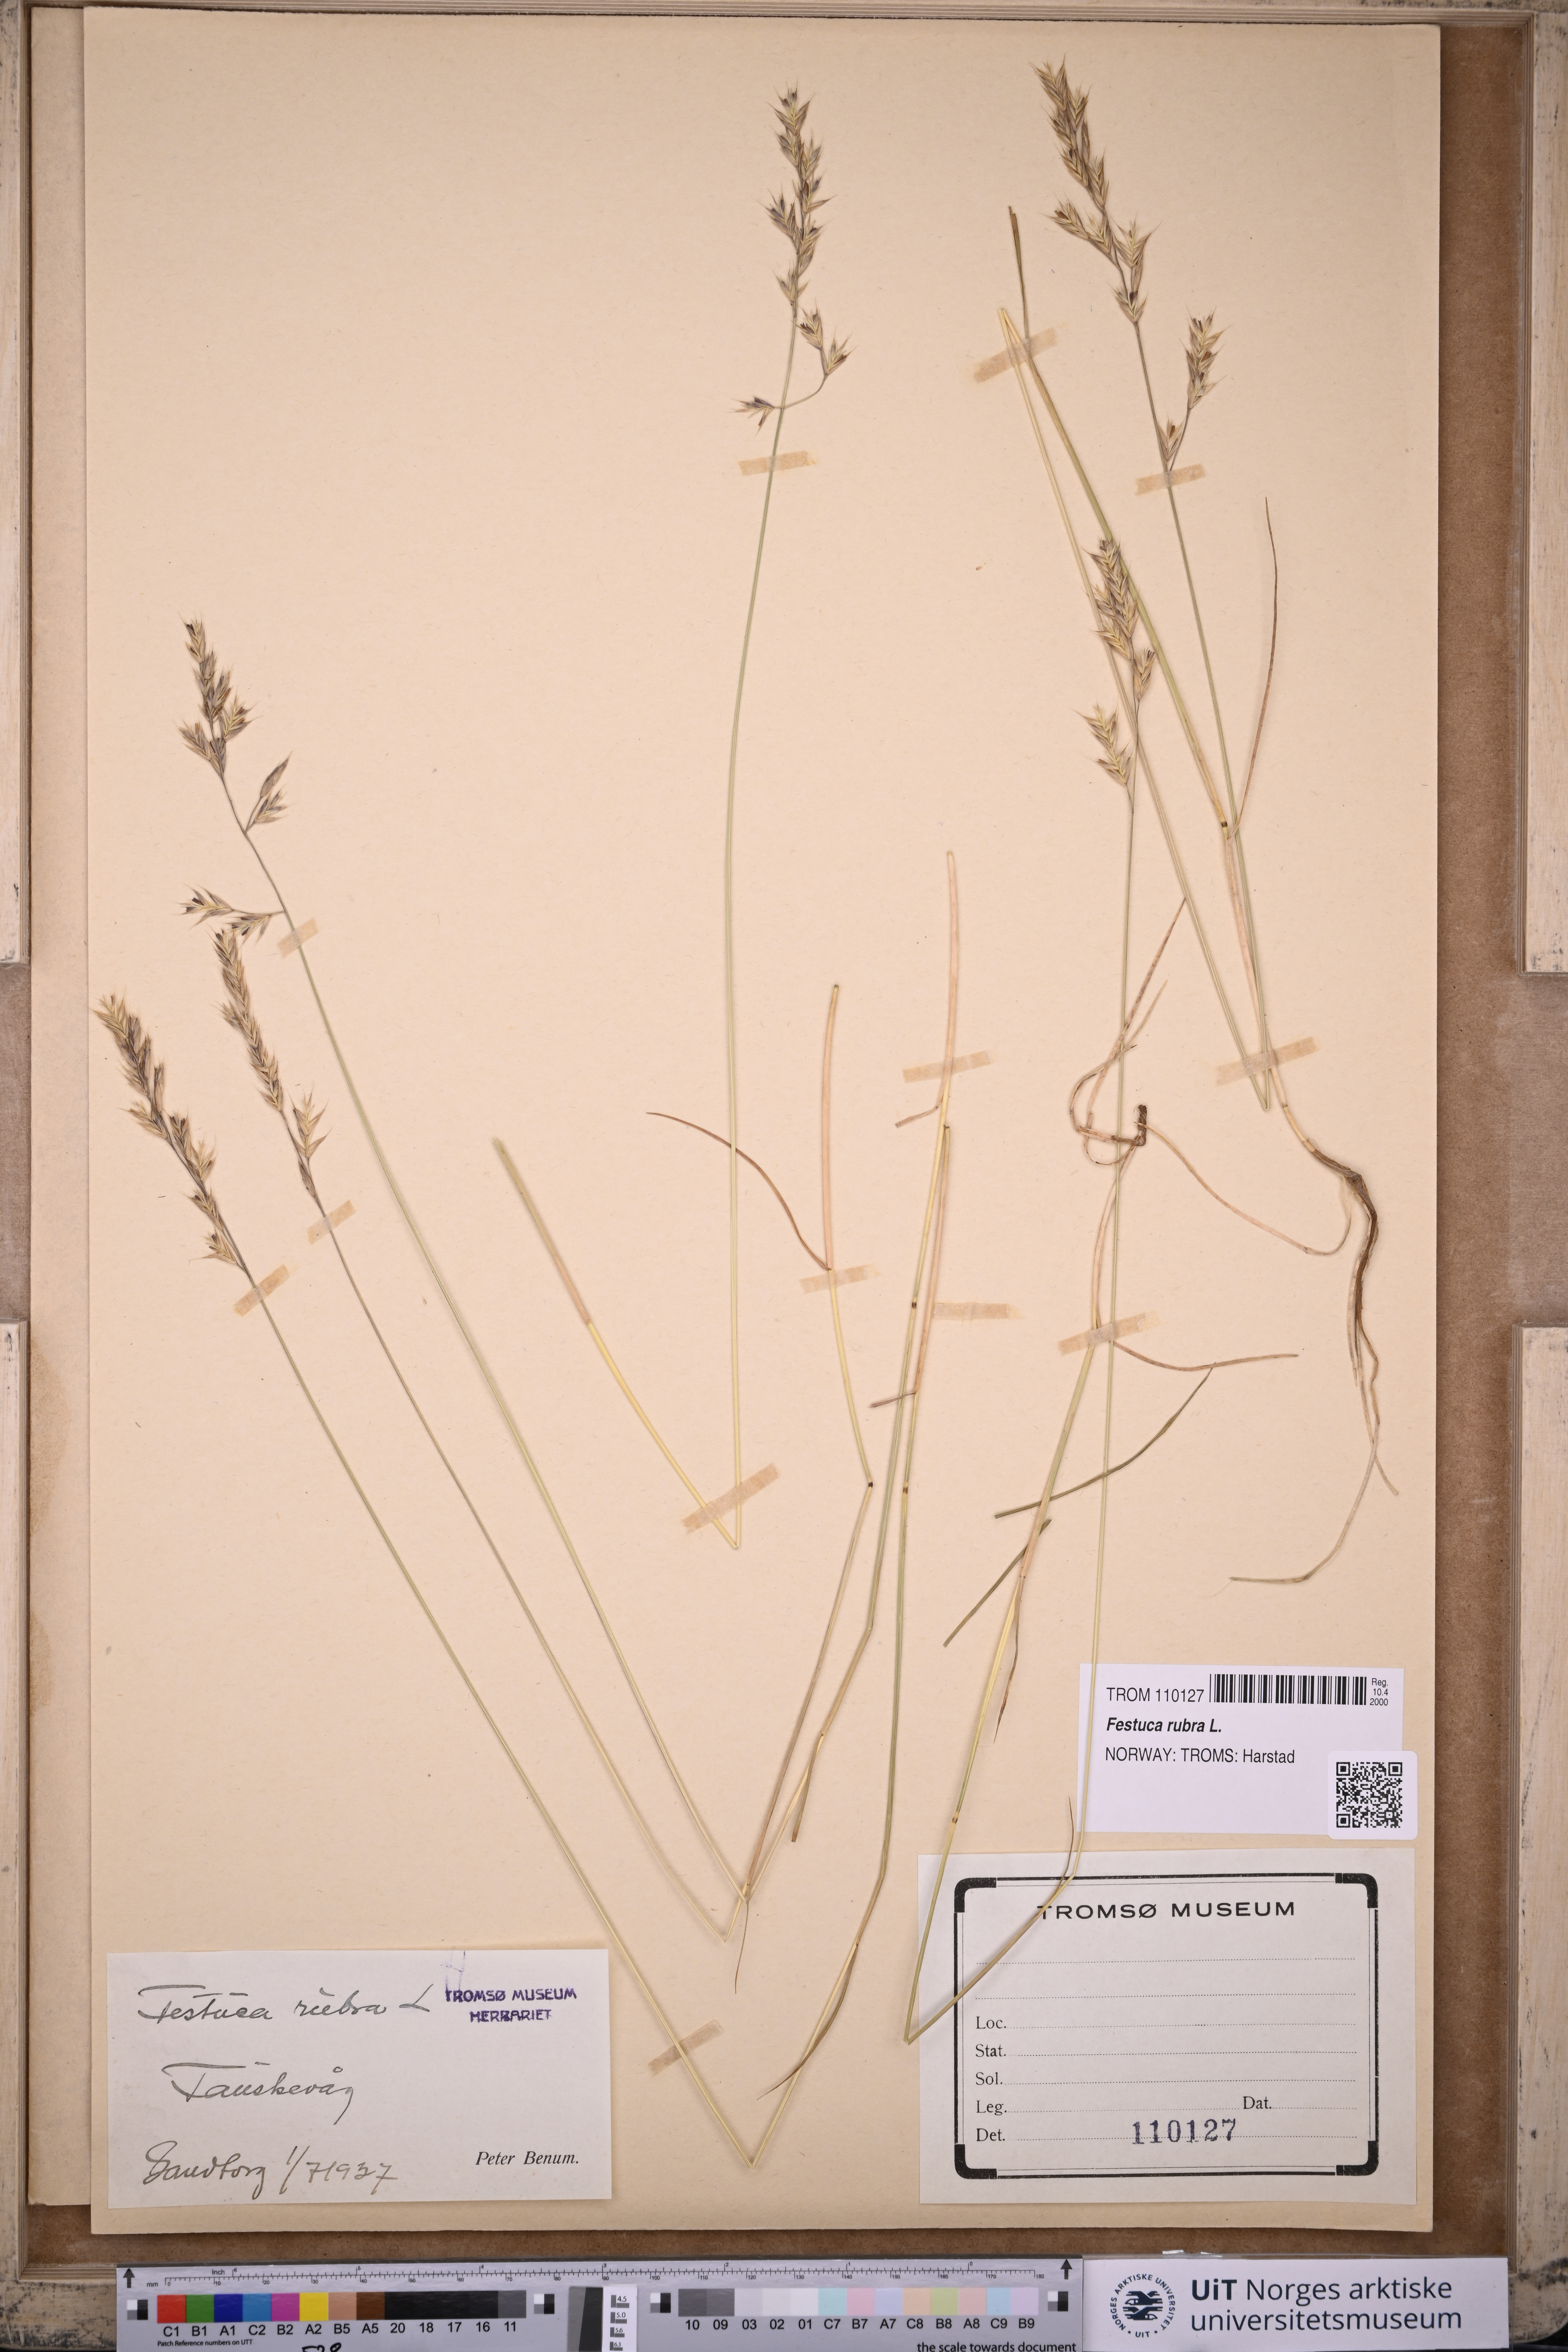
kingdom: Plantae
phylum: Tracheophyta
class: Liliopsida
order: Poales
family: Poaceae
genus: Festuca
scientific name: Festuca rubra
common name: Red fescue
